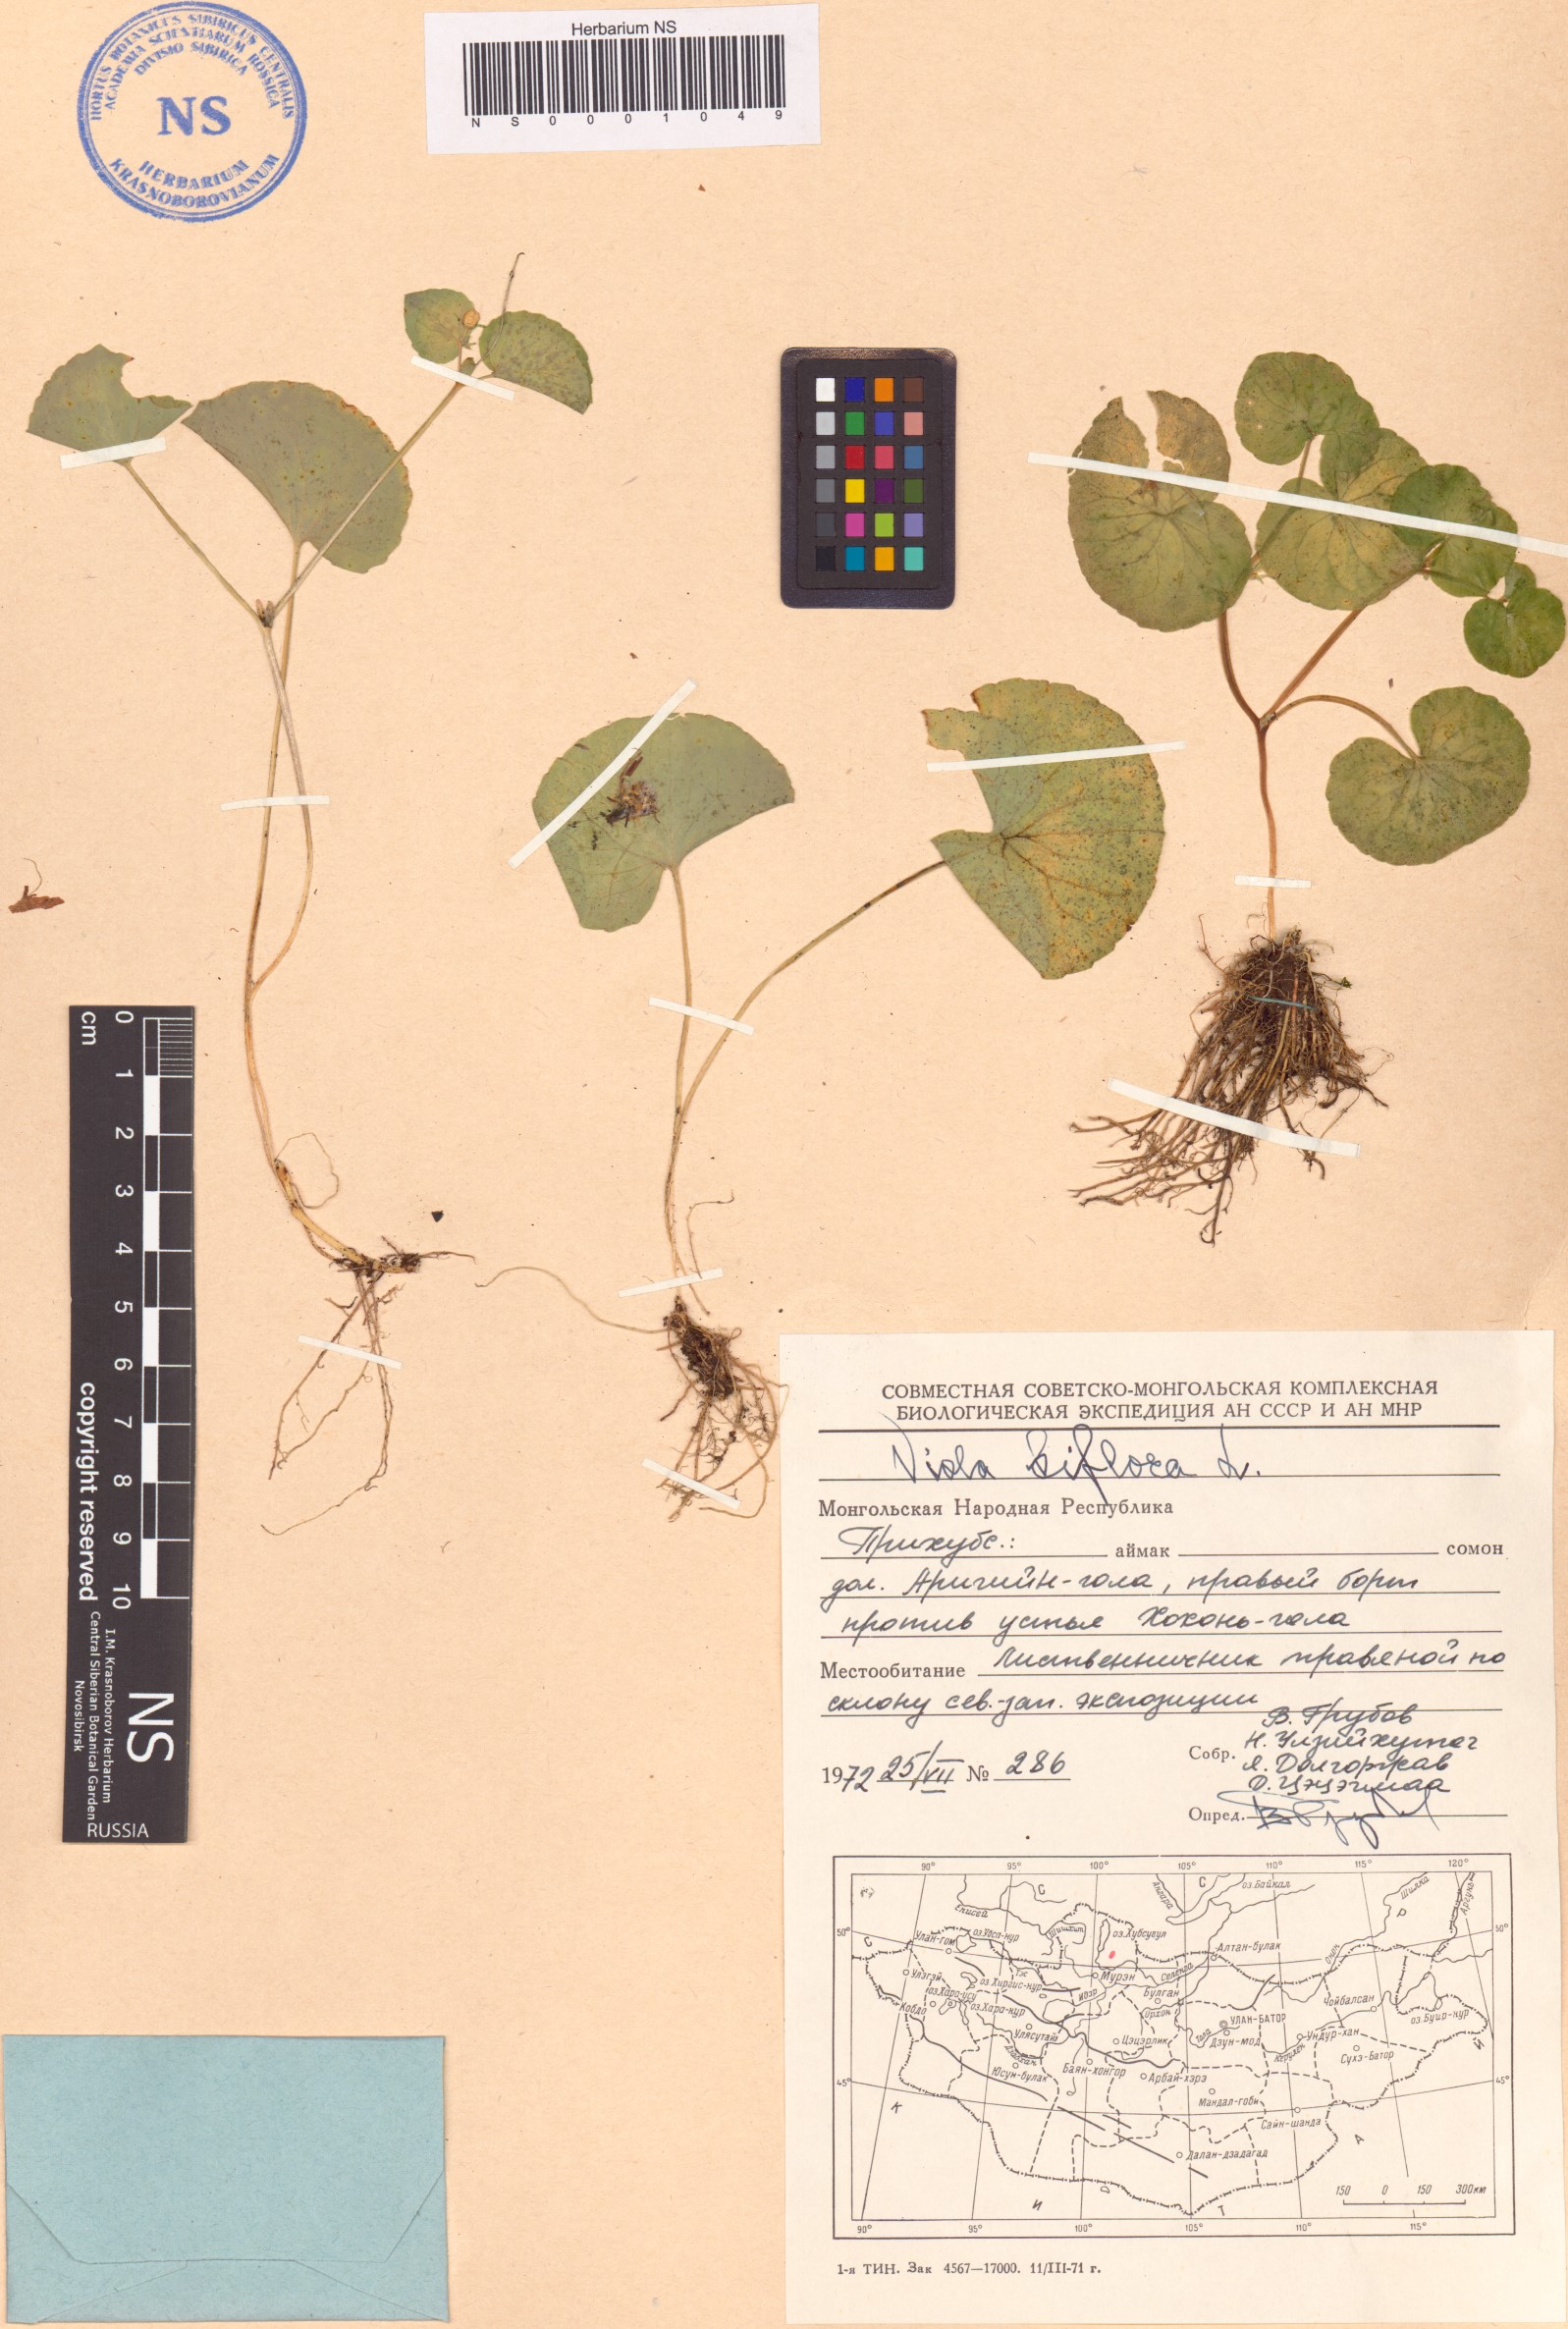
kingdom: Plantae
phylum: Tracheophyta
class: Magnoliopsida
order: Malpighiales
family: Violaceae
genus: Viola
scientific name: Viola biflora
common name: Alpine yellow violet
